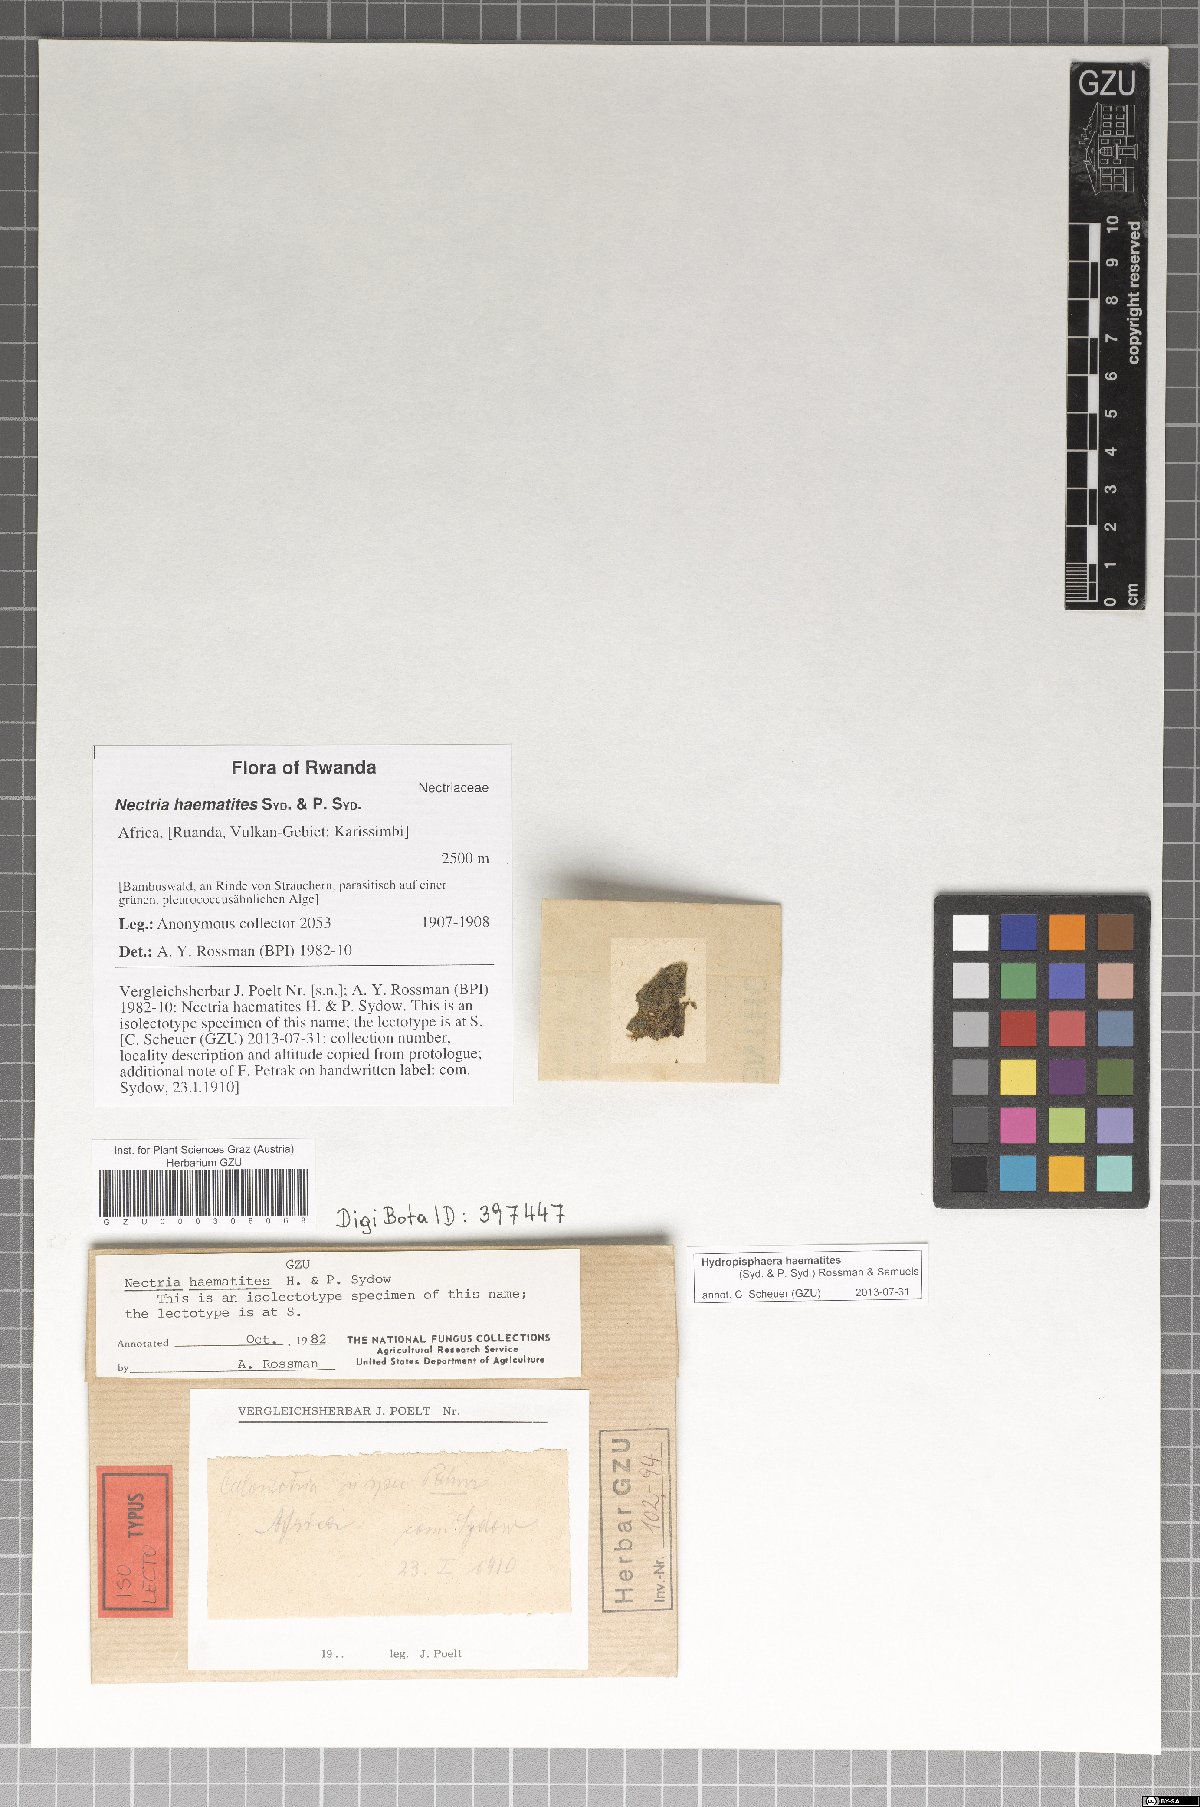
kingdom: Fungi
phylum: Ascomycota
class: Sordariomycetes
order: Hypocreales
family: Nectriaceae
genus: Hydropisphaera
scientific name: Hydropisphaera haematites
